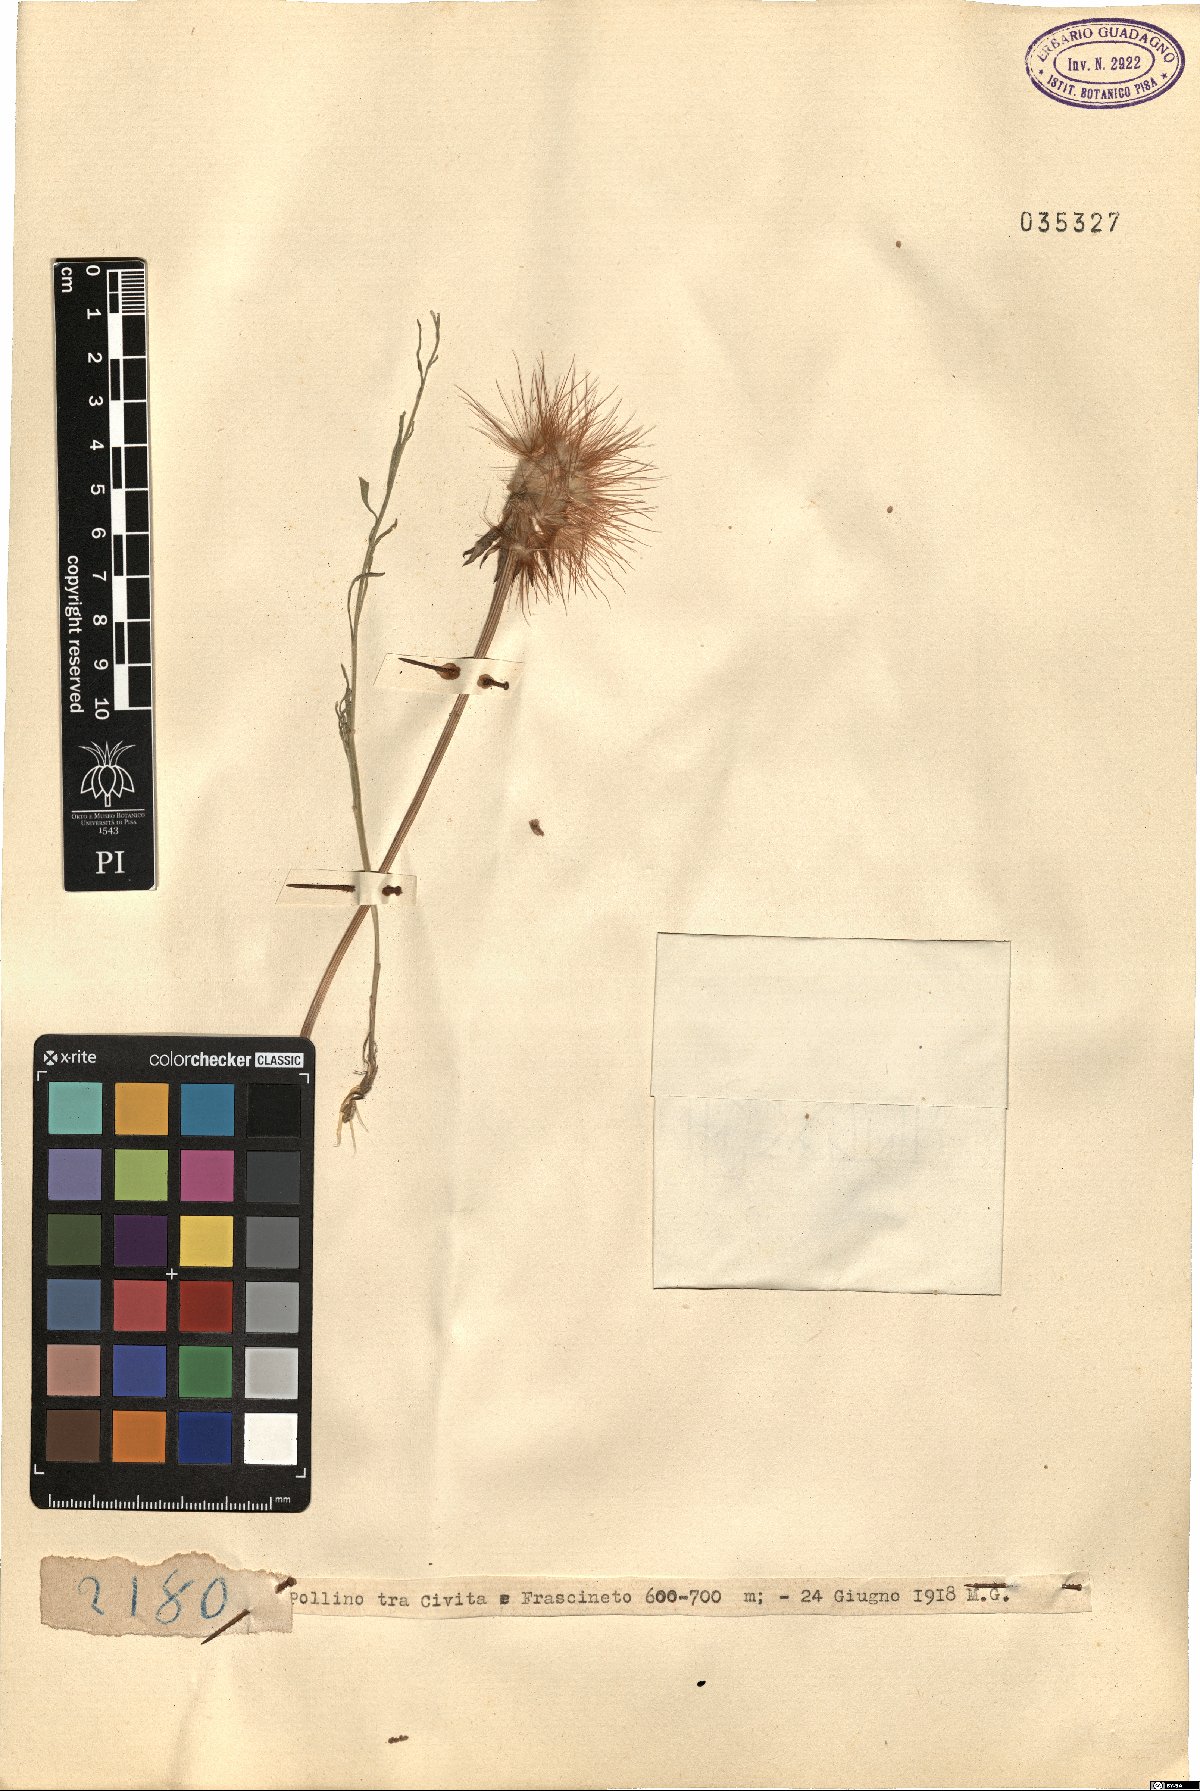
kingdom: Plantae
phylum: Tracheophyta
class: Magnoliopsida
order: Asterales
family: Asteraceae
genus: Geropogon
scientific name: Geropogon
